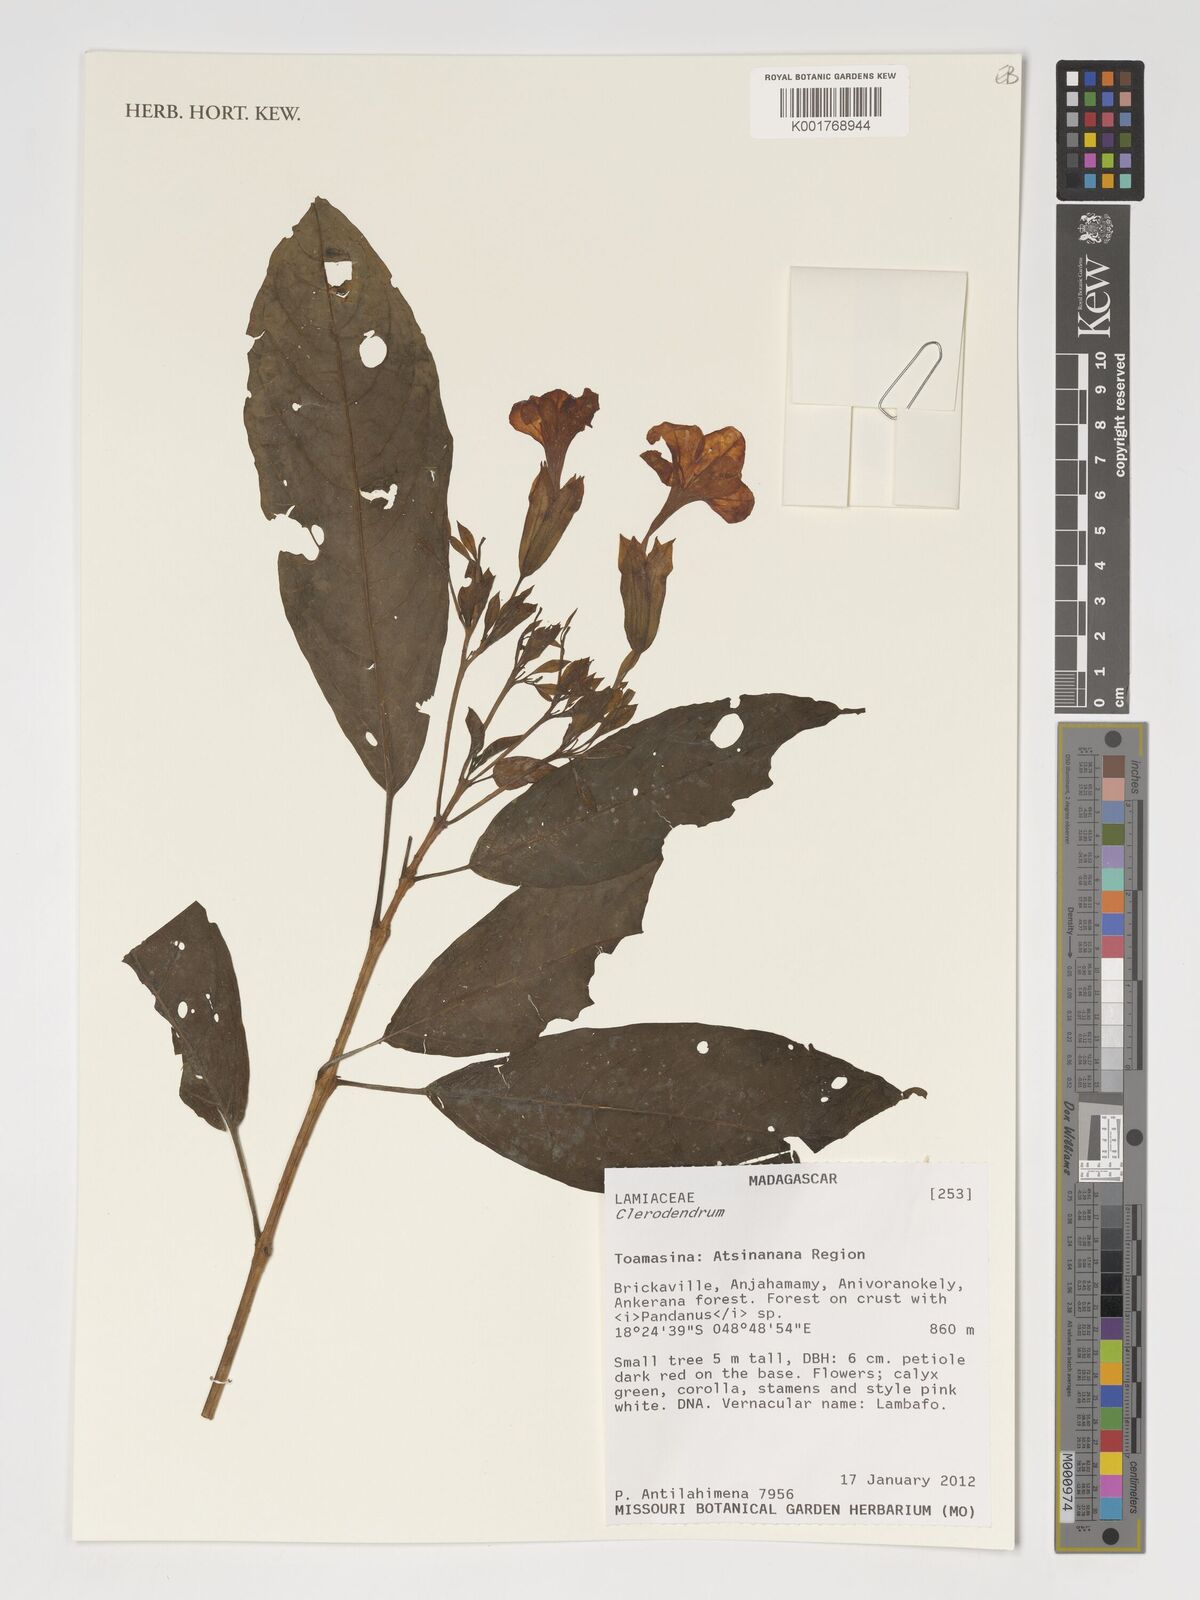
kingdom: Plantae
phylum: Tracheophyta
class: Magnoliopsida
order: Lamiales
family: Lamiaceae
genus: Clerodendrum
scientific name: Clerodendrum
